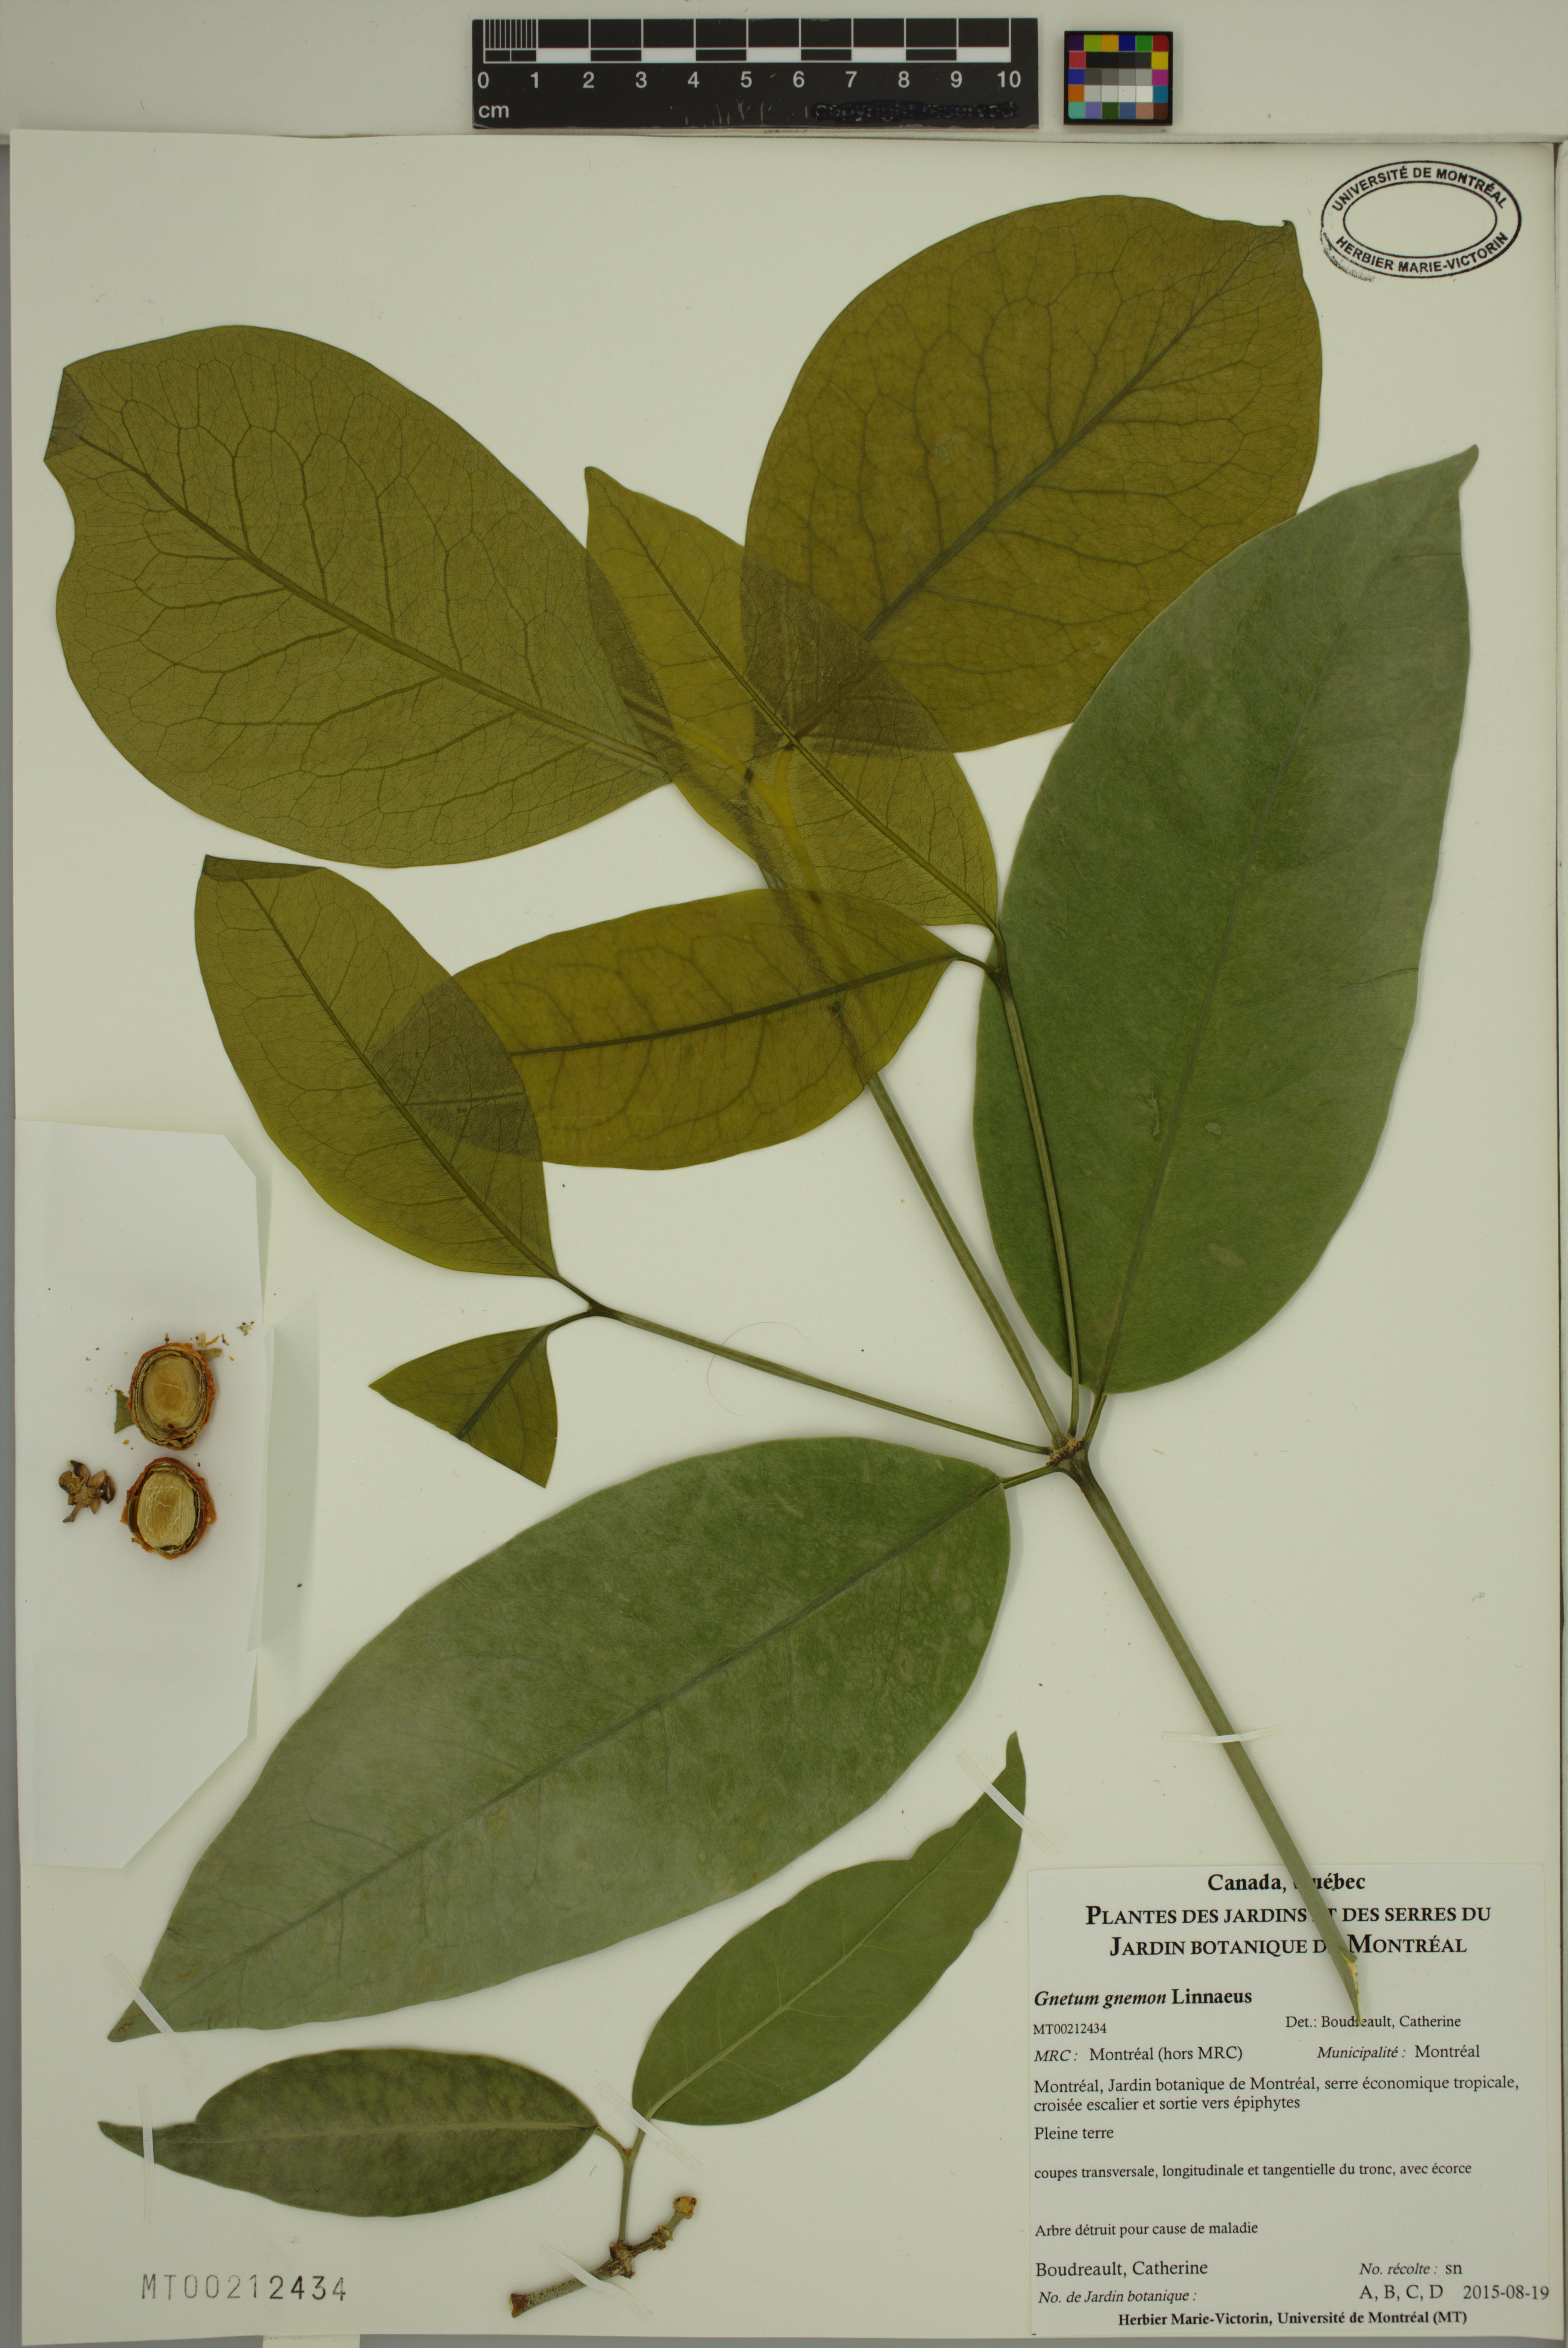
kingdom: Plantae
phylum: Tracheophyta
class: Gnetopsida
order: Gnetales
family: Gnetaceae
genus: Gnetum
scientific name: Gnetum gnemon
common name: Spanish joint-fir
